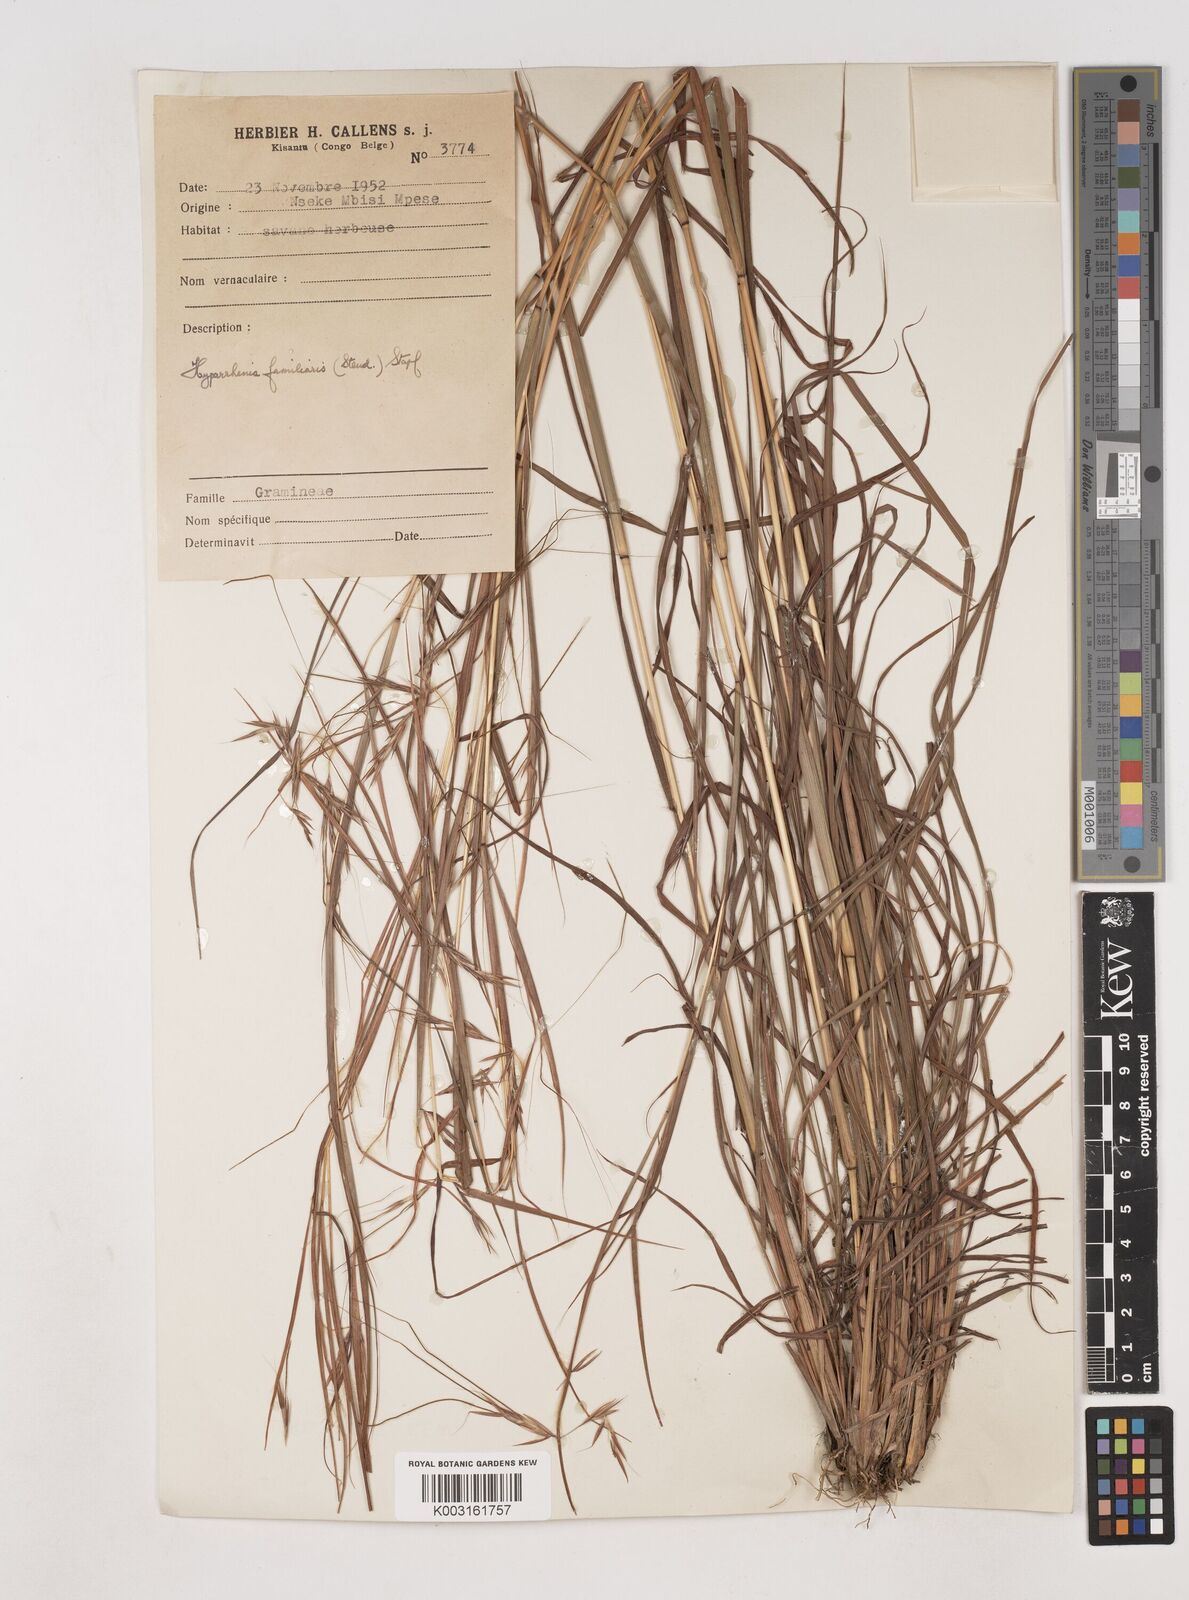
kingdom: Plantae
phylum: Tracheophyta
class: Liliopsida
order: Poales
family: Poaceae
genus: Hyparrhenia
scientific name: Hyparrhenia familiaris
